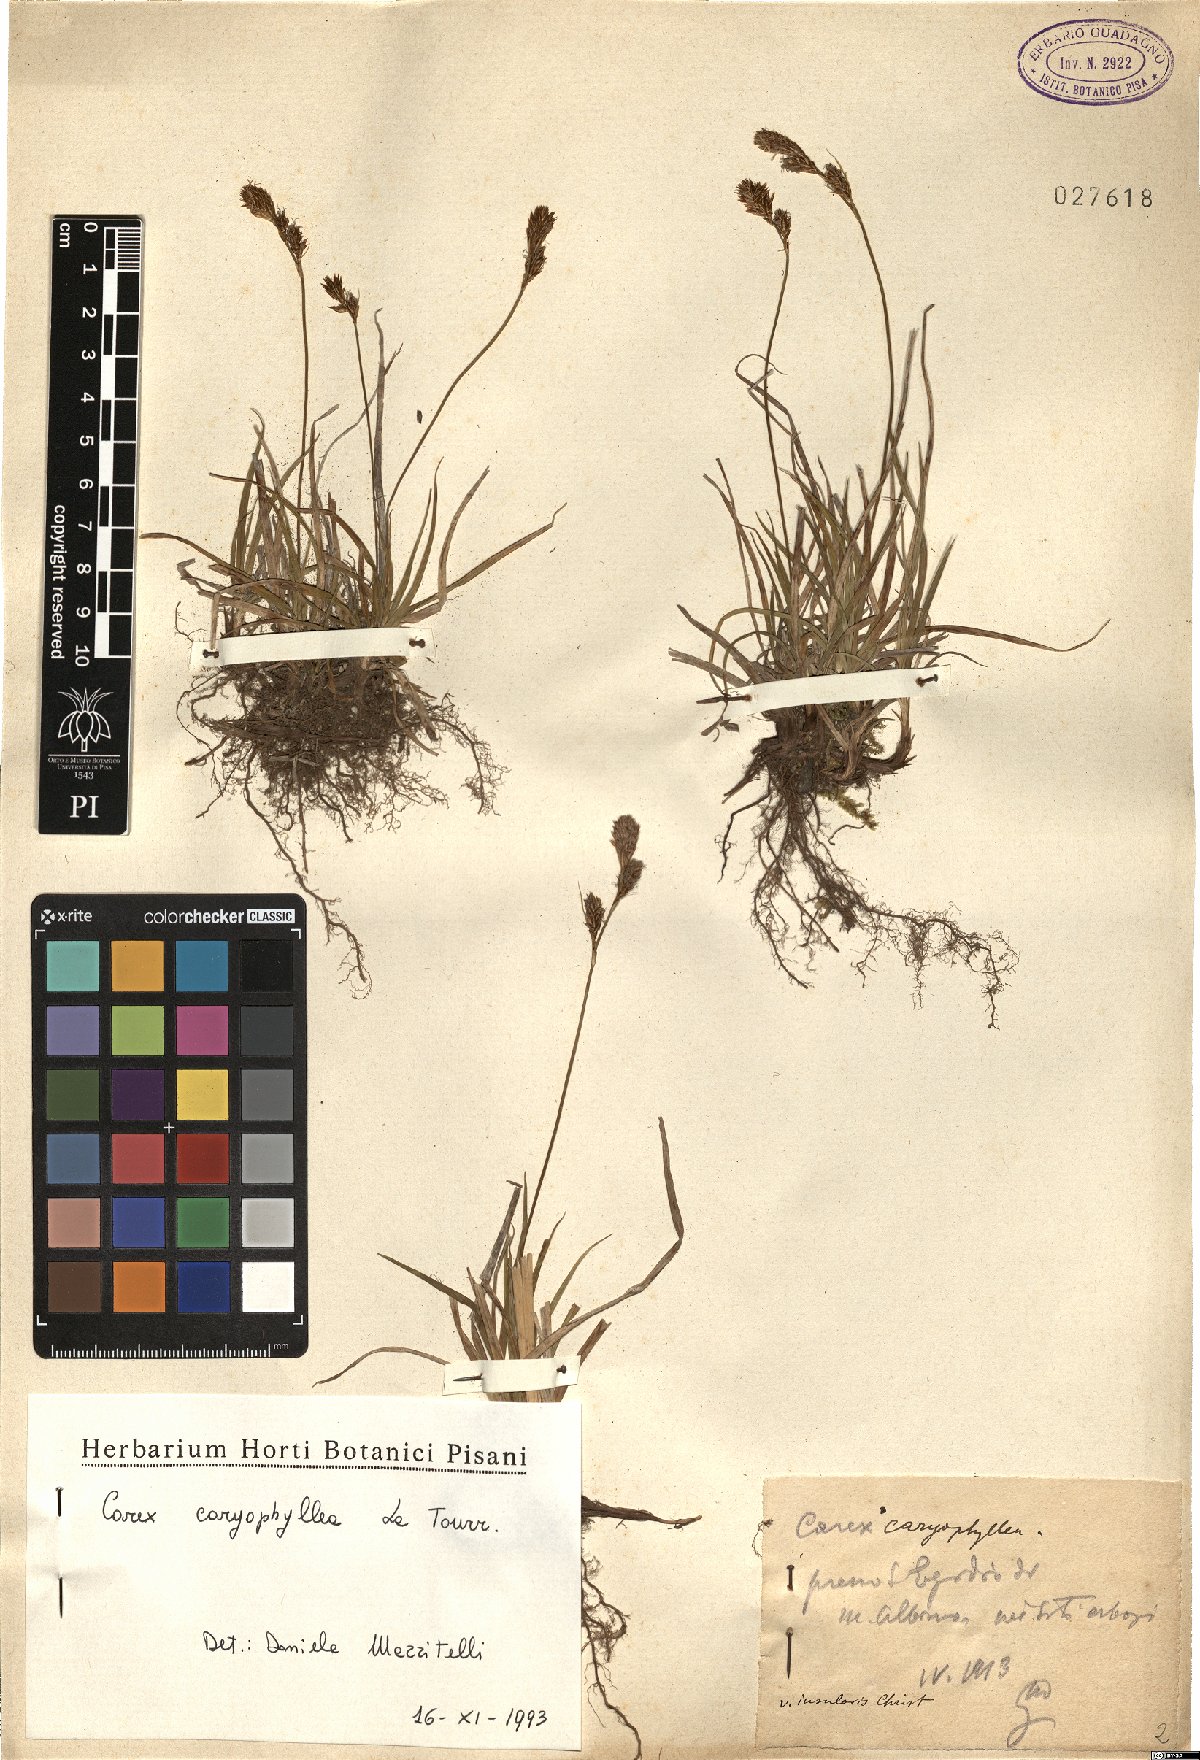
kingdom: Plantae
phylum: Tracheophyta
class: Liliopsida
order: Poales
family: Cyperaceae
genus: Carex
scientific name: Carex caryophyllea
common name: Spring sedge
